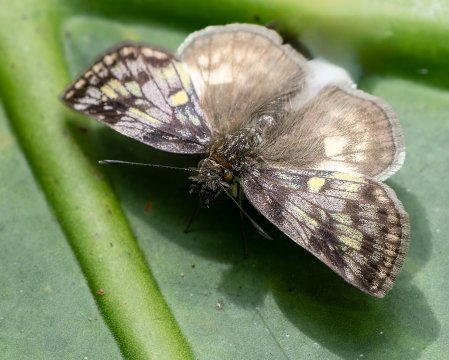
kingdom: Animalia
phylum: Arthropoda
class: Insecta
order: Lepidoptera
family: Hesperiidae
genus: Xenophanes
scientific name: Xenophanes tryxus
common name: Glassy-winged Skipper
